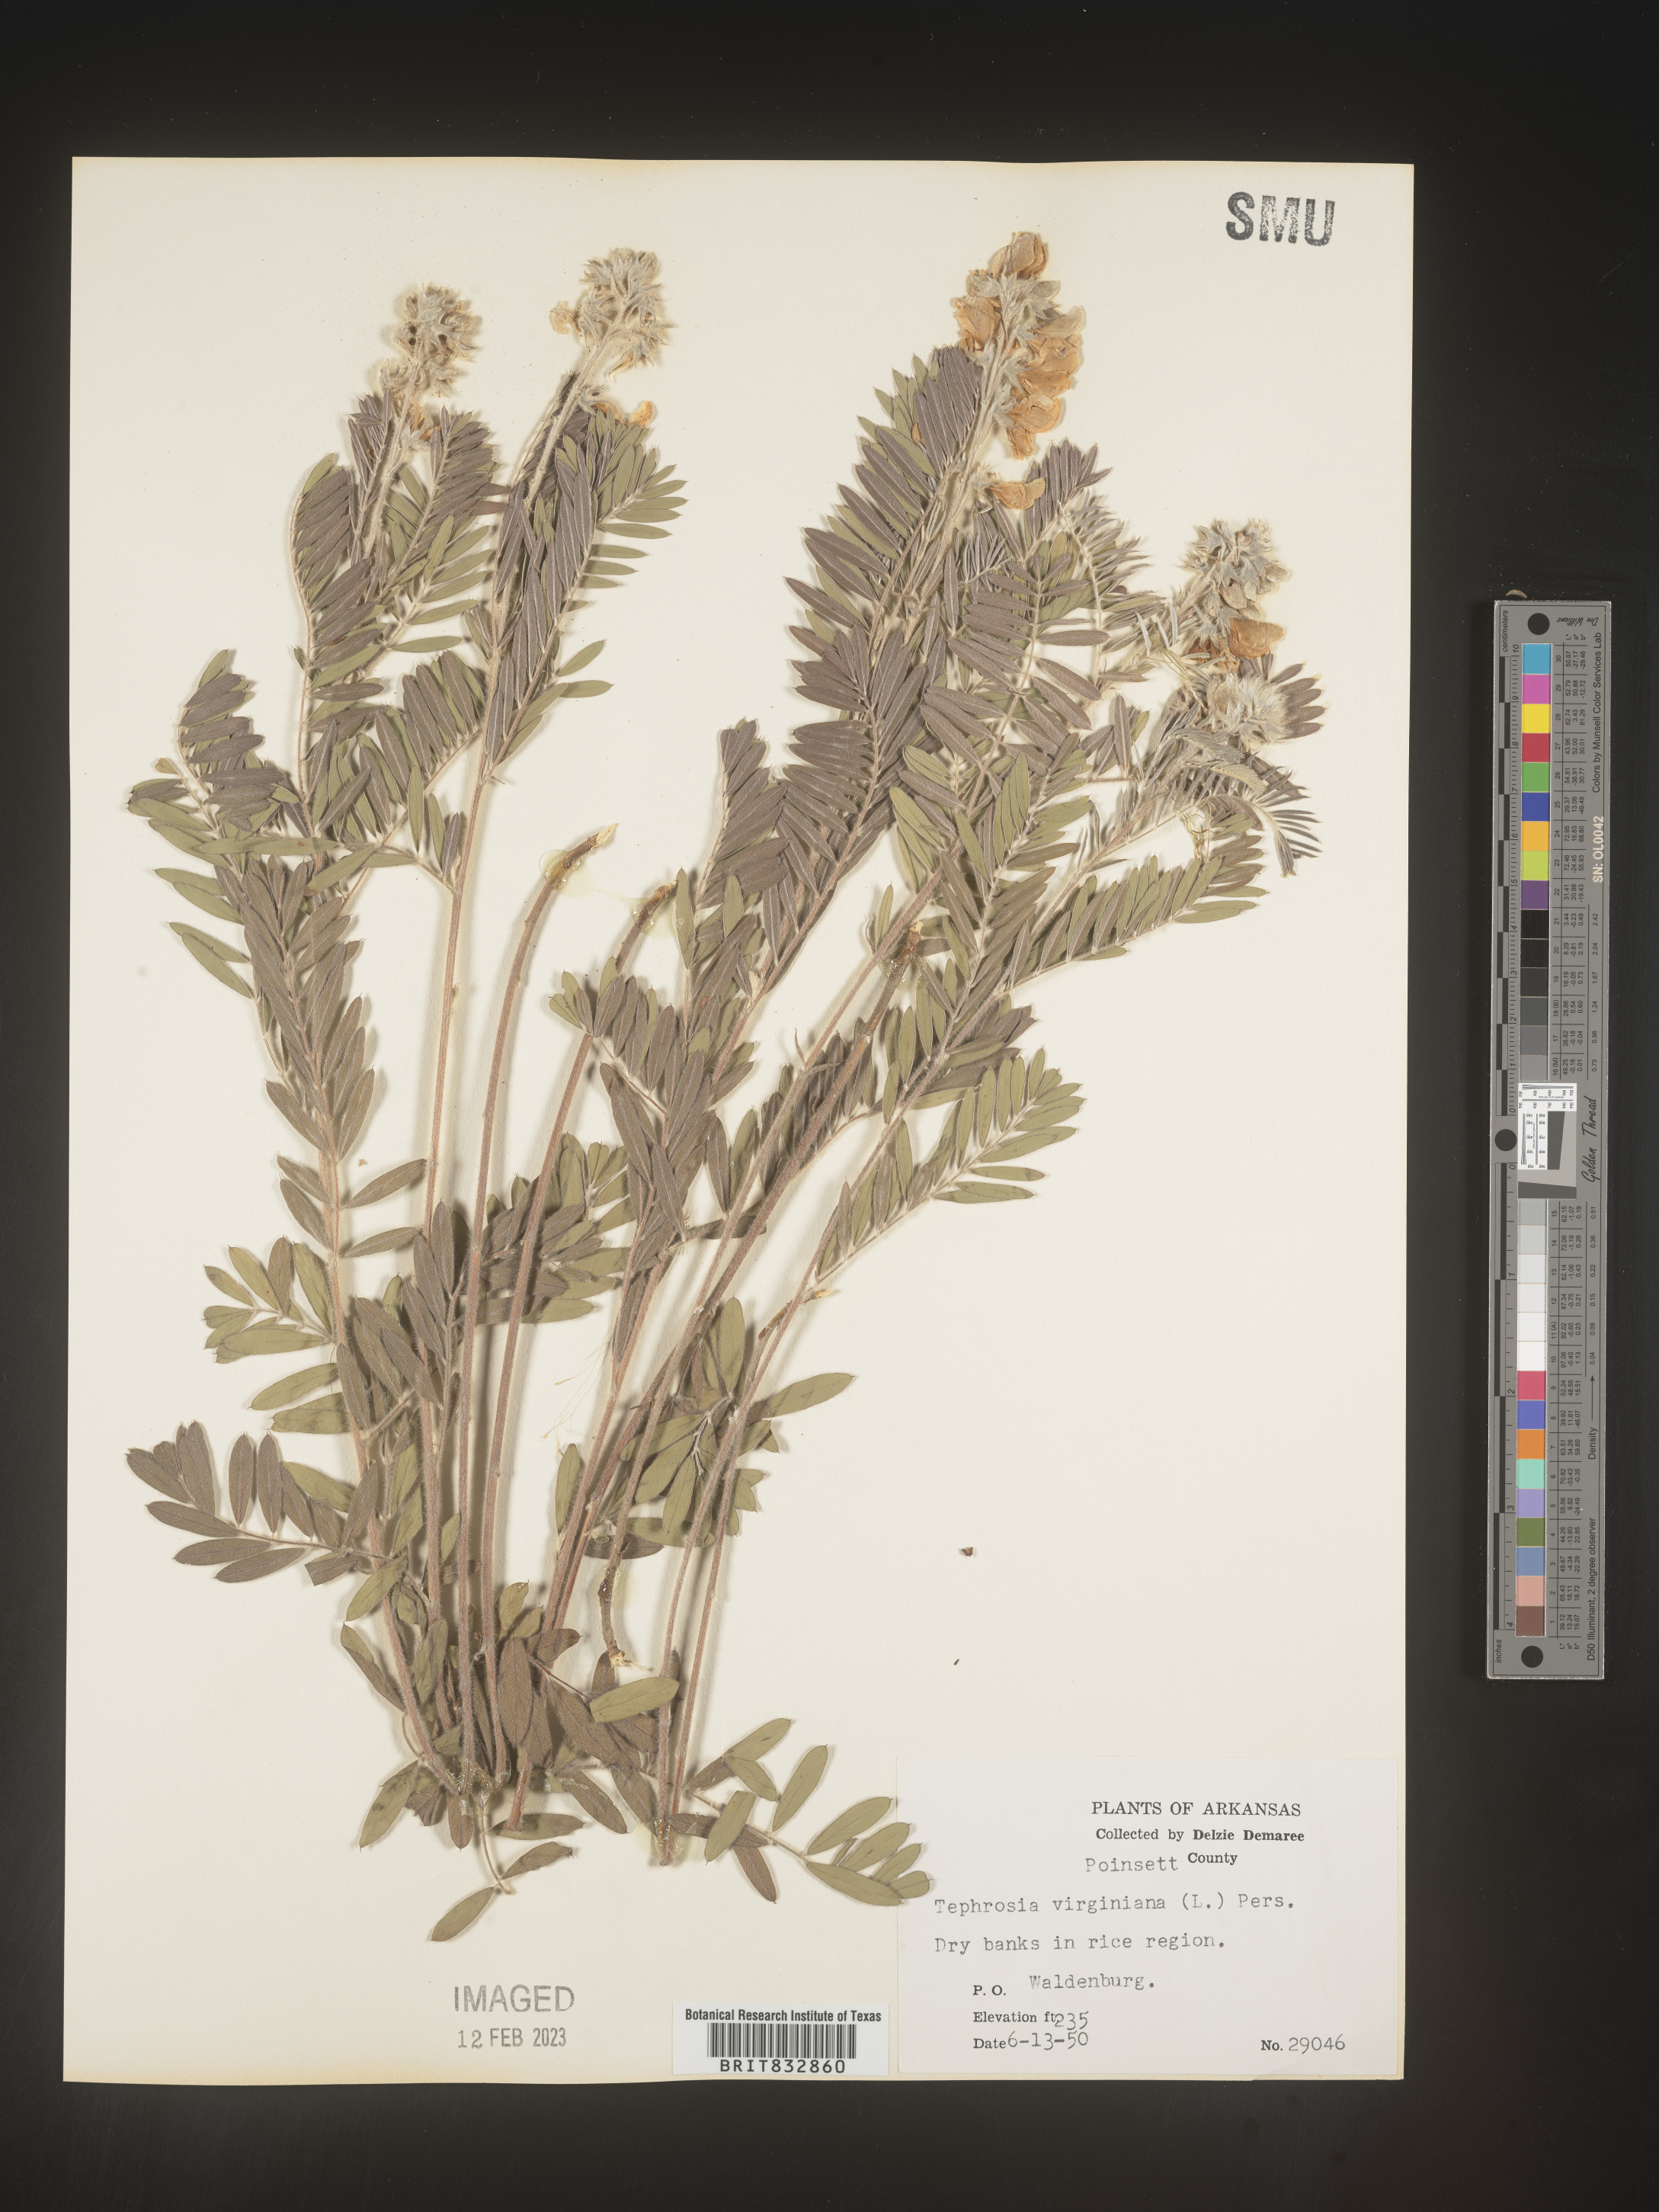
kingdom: Plantae
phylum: Tracheophyta
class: Magnoliopsida
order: Fabales
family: Fabaceae
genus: Tephrosia
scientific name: Tephrosia virginiana
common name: Rabbit-pea
